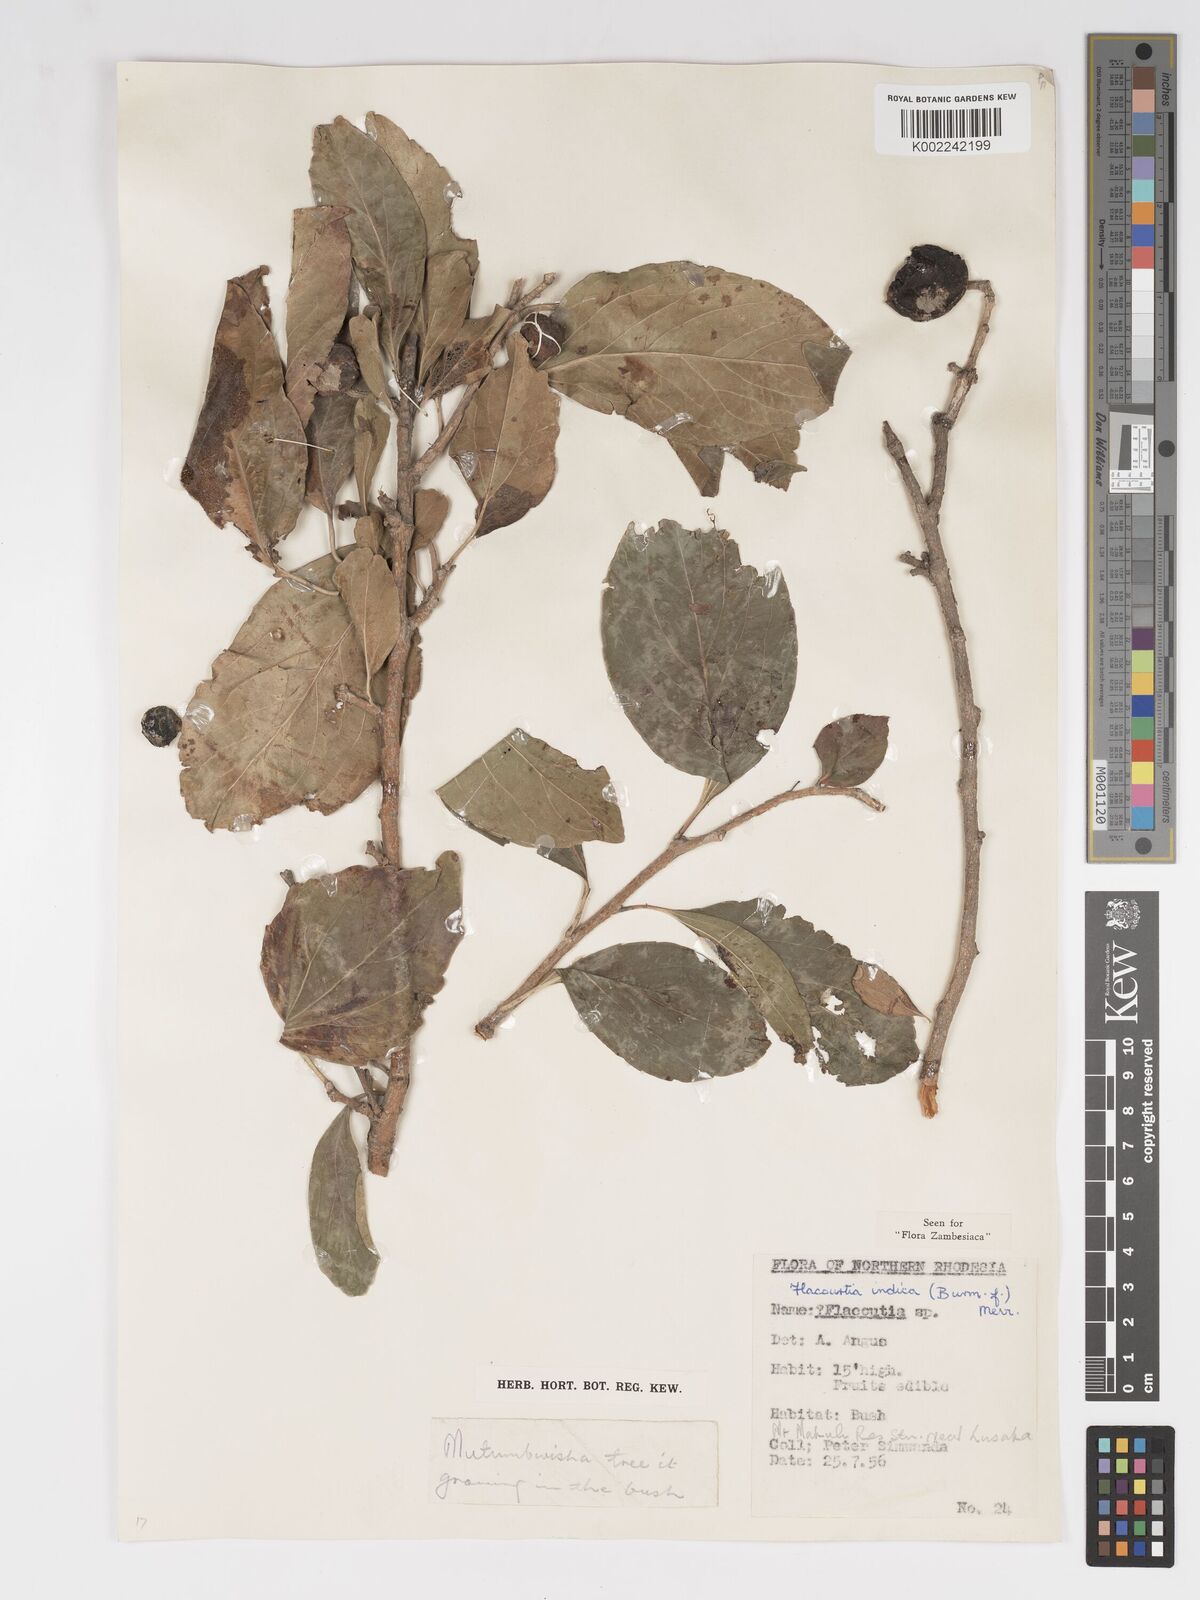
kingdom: Plantae
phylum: Tracheophyta
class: Magnoliopsida
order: Malpighiales
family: Salicaceae
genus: Flacourtia
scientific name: Flacourtia indica
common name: Governor's plum
